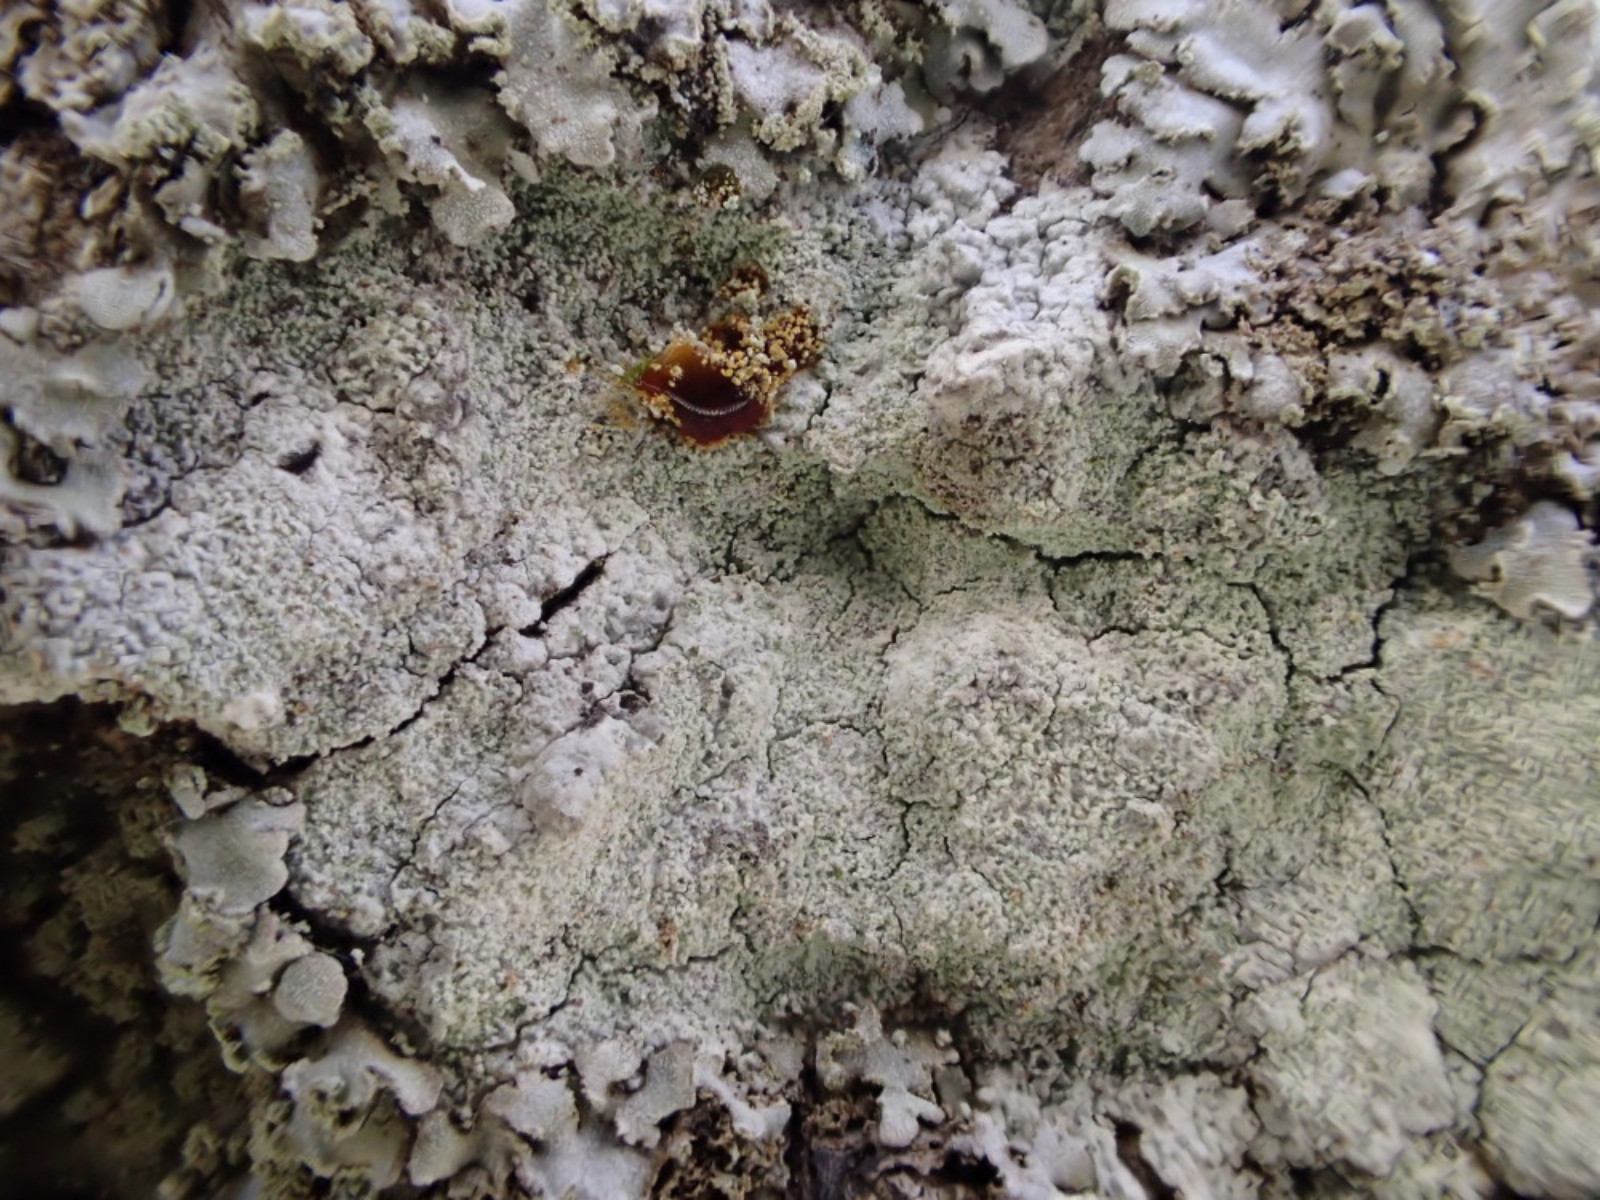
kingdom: Fungi
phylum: Ascomycota
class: Lecanoromycetes
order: Ostropales
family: Phlyctidaceae
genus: Phlyctis
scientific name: Phlyctis argena
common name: almindelig sølvlav
